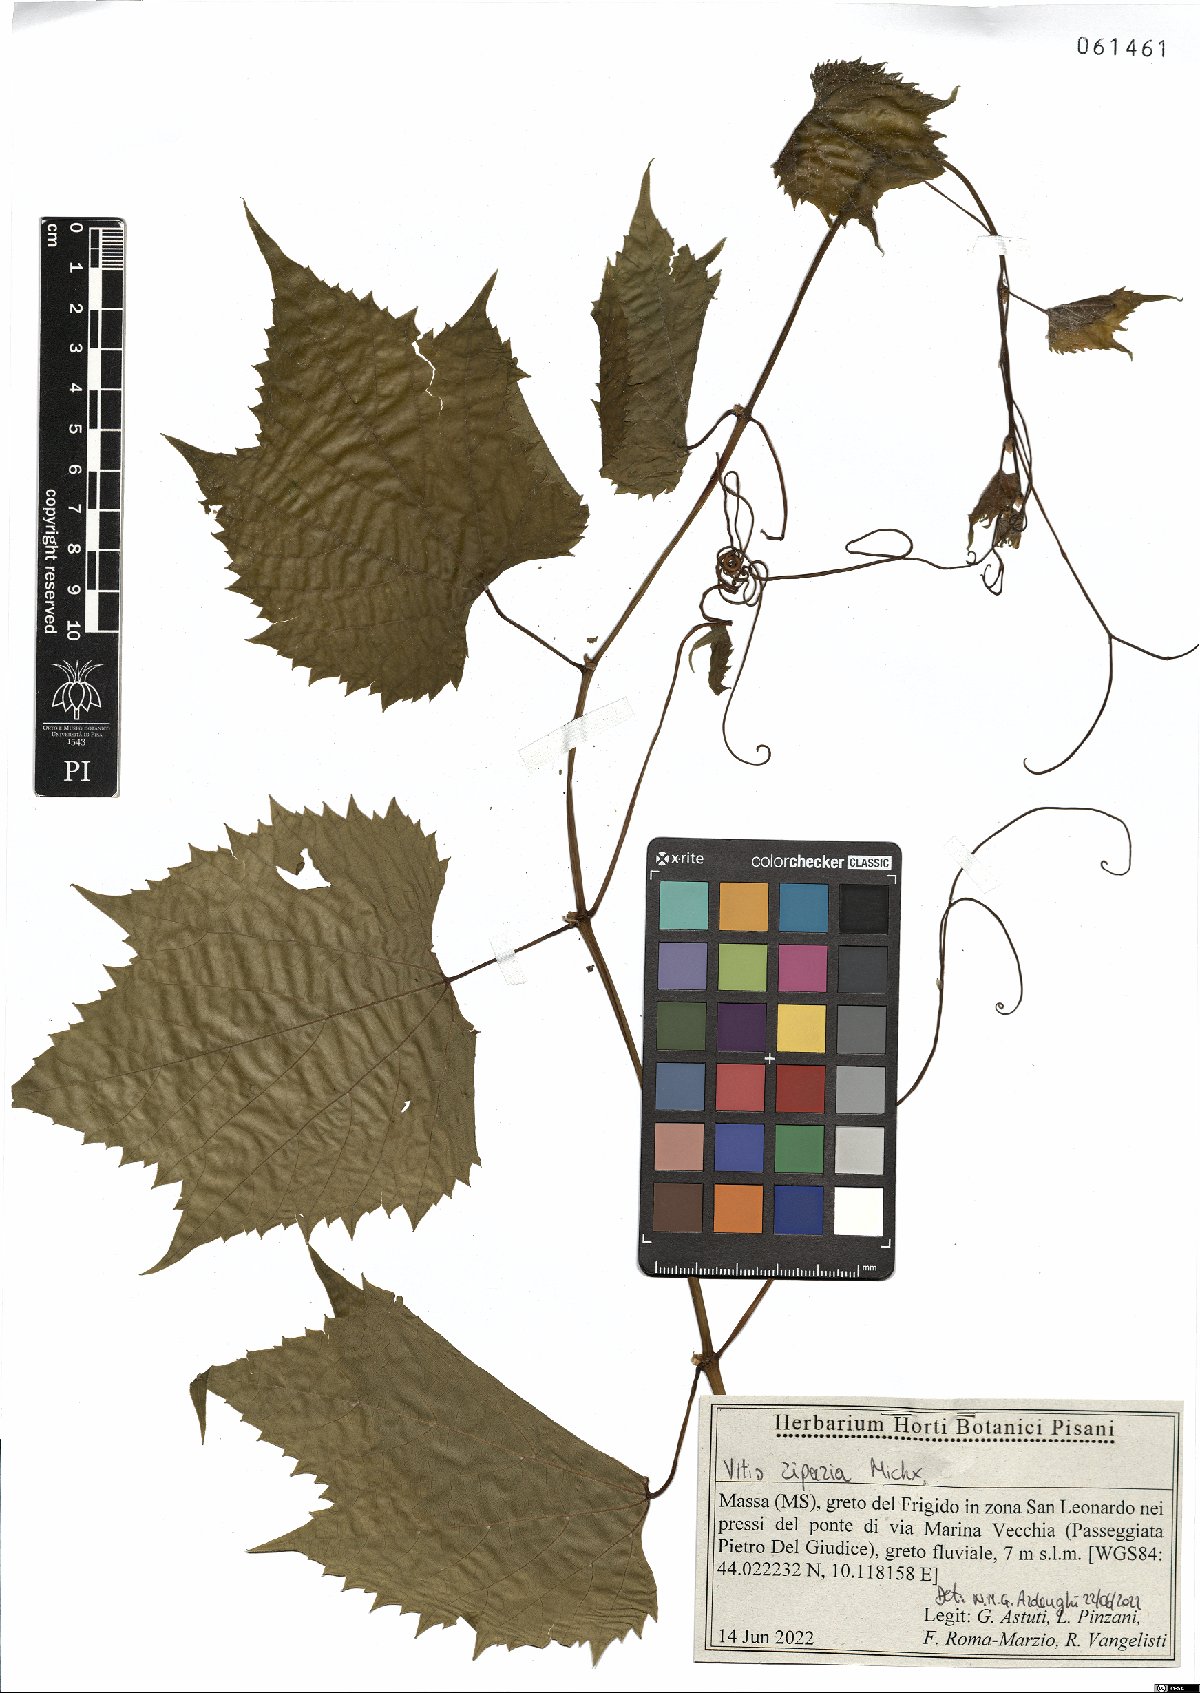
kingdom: Plantae
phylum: Tracheophyta
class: Magnoliopsida
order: Vitales
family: Vitaceae
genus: Vitis
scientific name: Vitis riparia
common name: Frost grape
